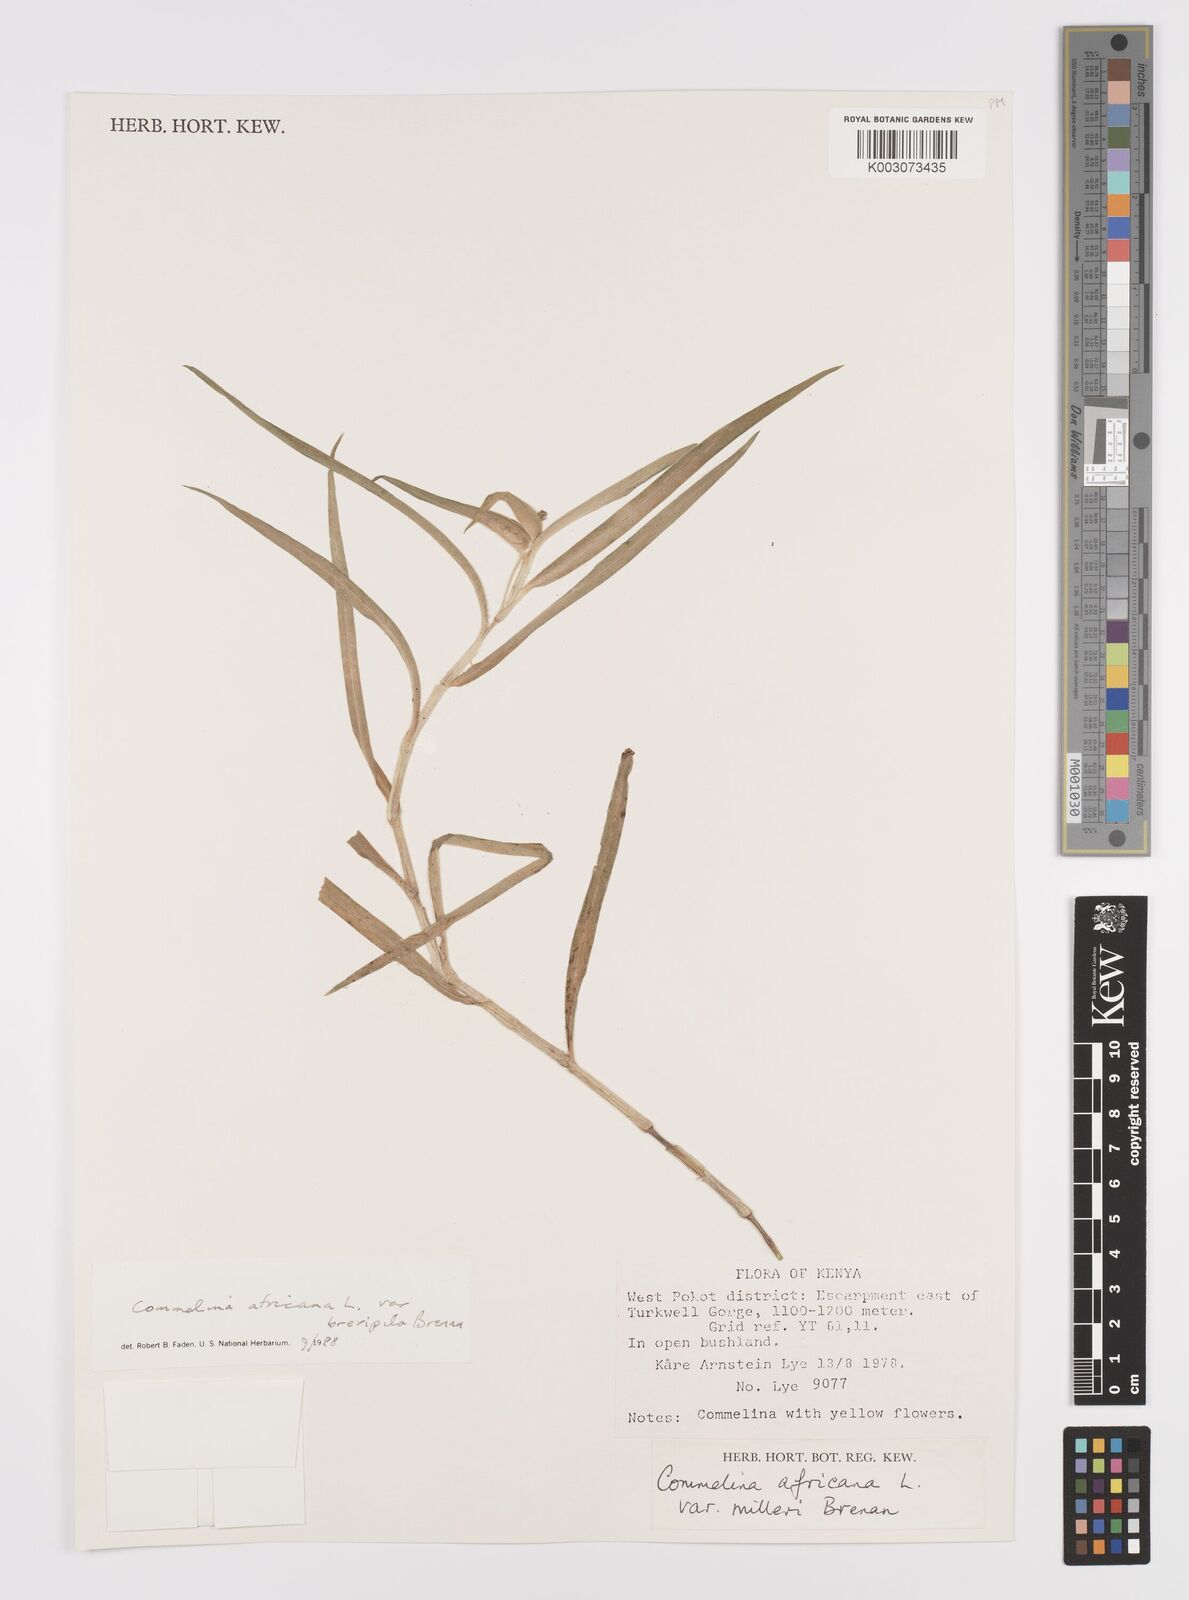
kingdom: Plantae
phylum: Tracheophyta
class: Liliopsida
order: Commelinales
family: Commelinaceae
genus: Commelina
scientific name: Commelina africana
